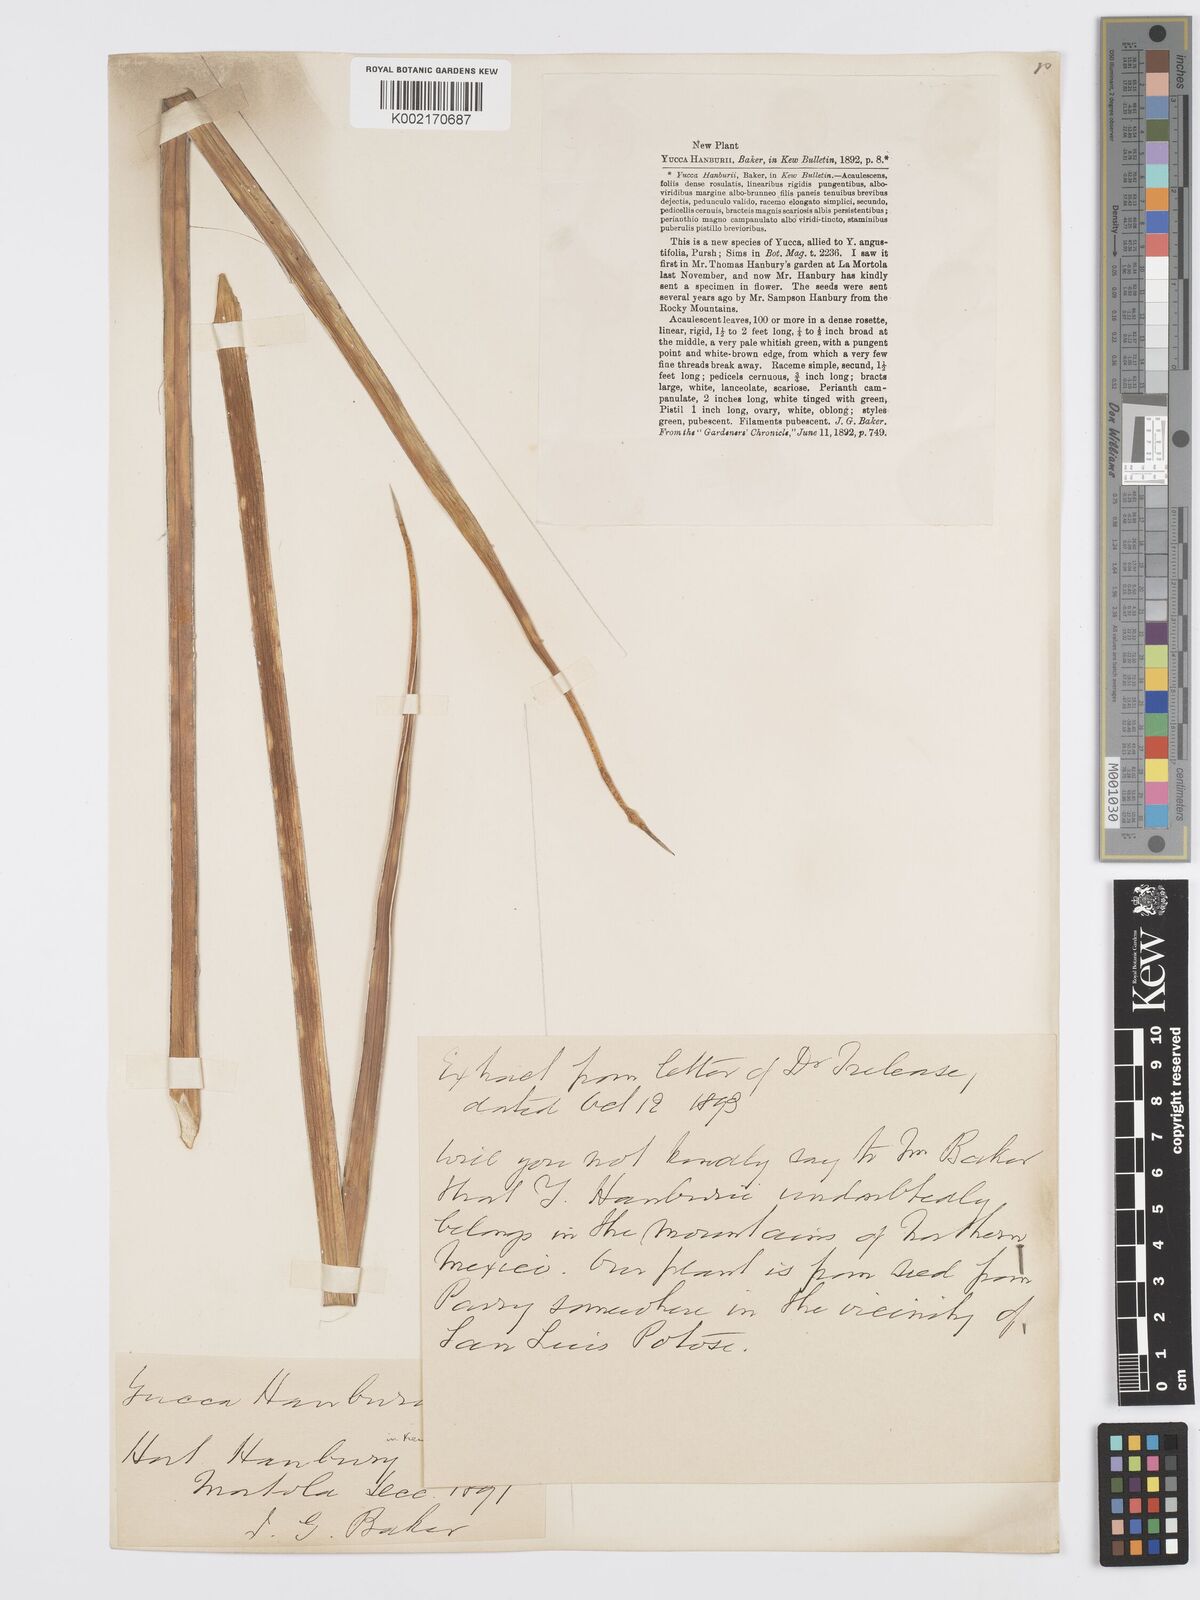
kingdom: Plantae
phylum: Tracheophyta
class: Liliopsida
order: Asparagales
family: Asparagaceae
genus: Yucca
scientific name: Yucca baccata
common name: Banana yucca
